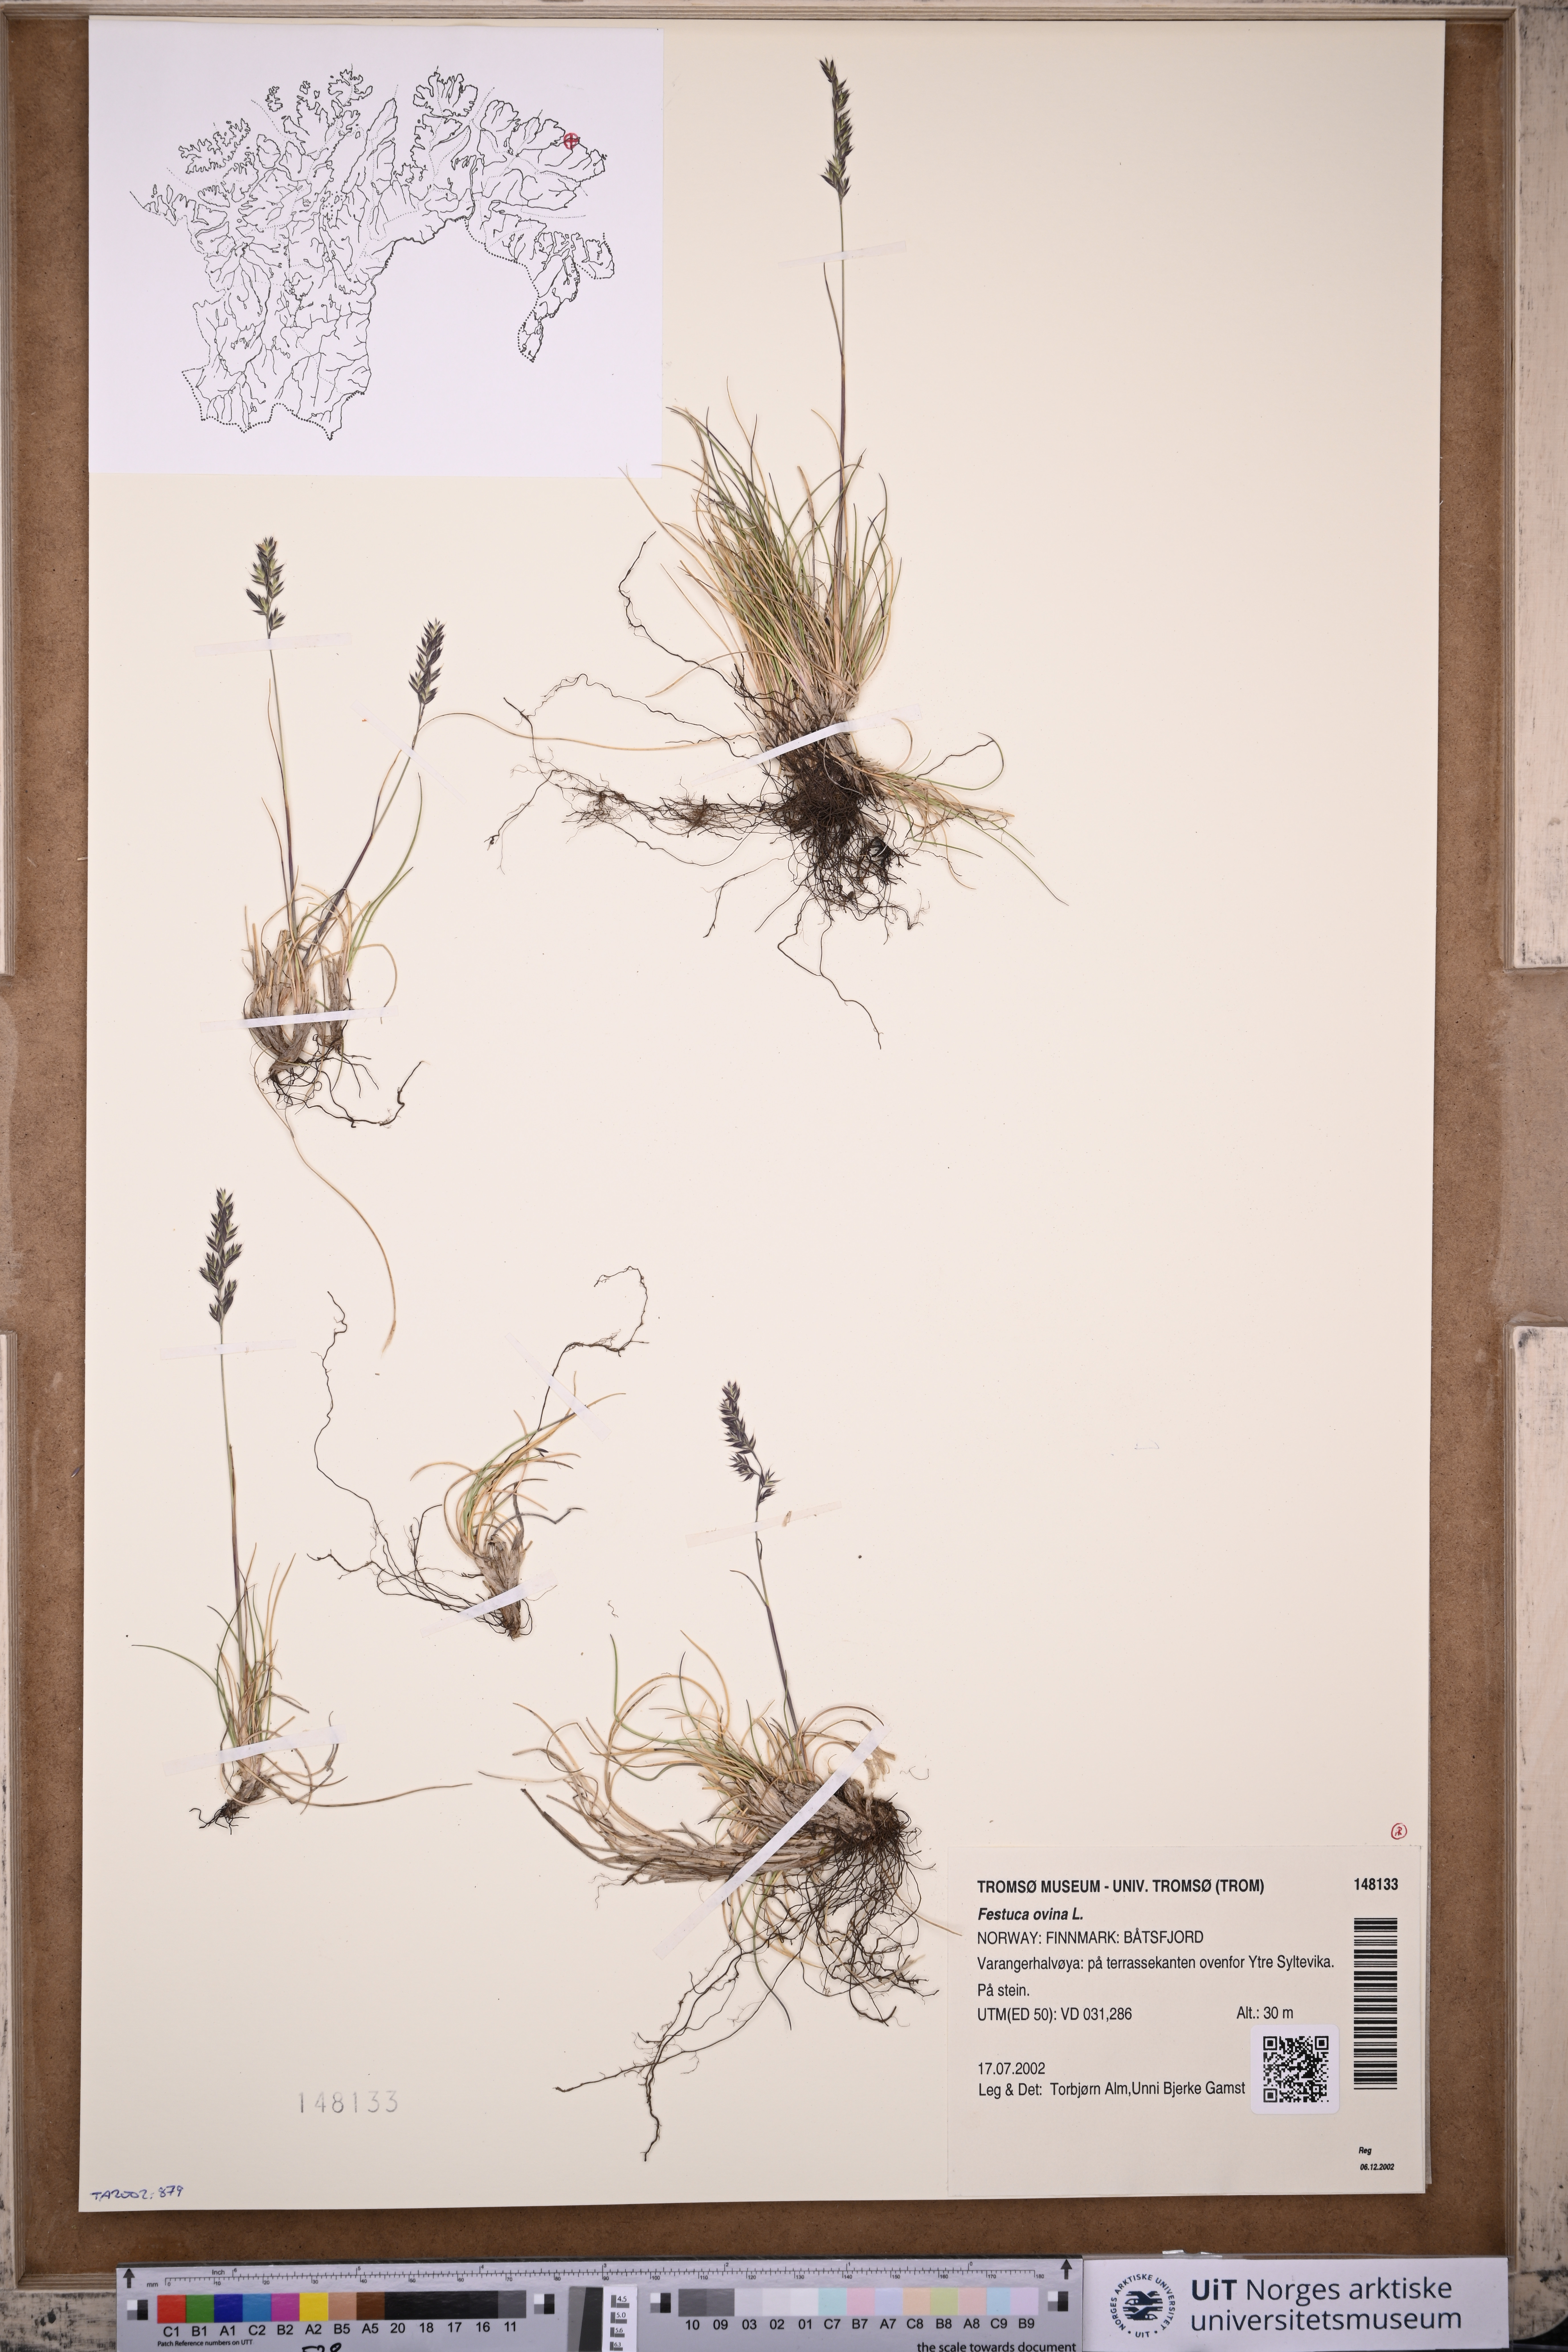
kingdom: Plantae
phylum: Tracheophyta
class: Liliopsida
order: Poales
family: Poaceae
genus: Festuca
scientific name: Festuca ovina
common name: Sheep fescue
